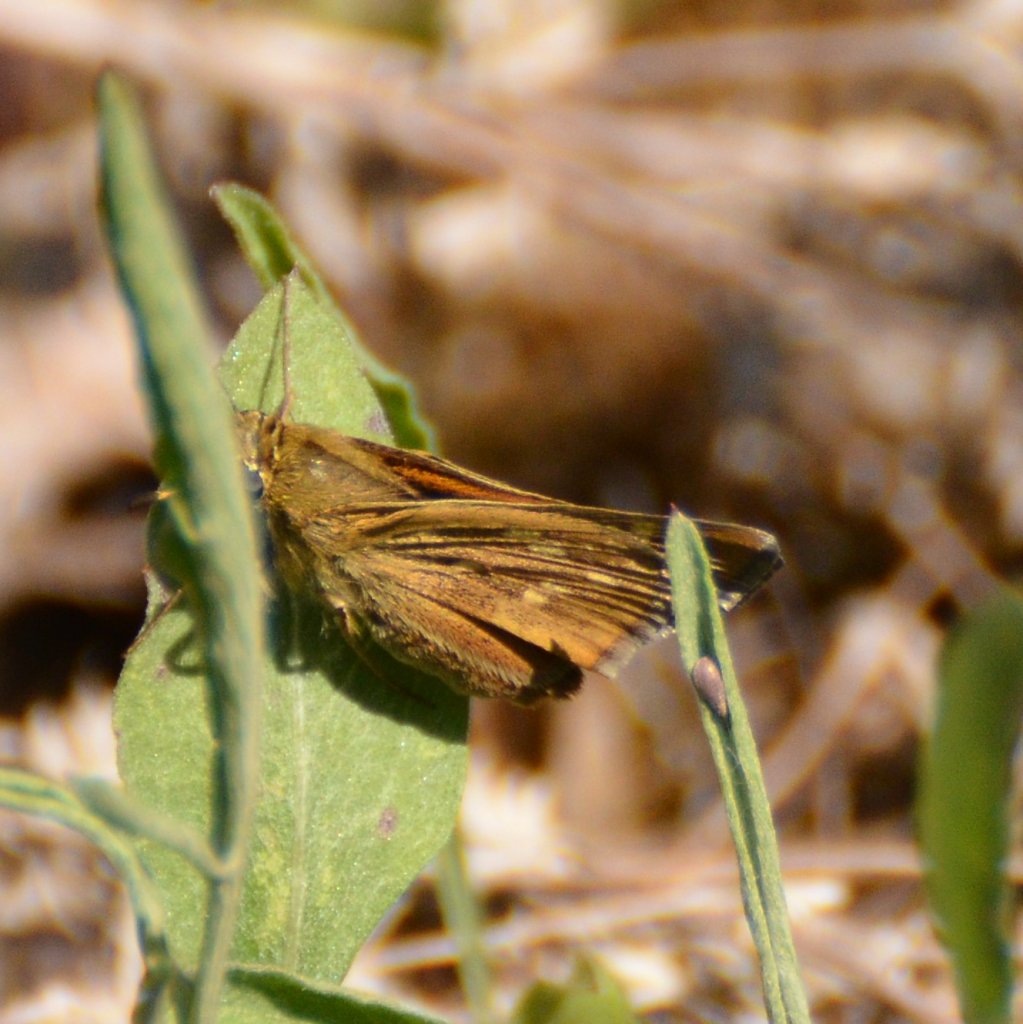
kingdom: Animalia
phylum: Arthropoda
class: Insecta
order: Lepidoptera
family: Hesperiidae
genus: Hesperia
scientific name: Hesperia sassacus
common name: Sassacus Skipper
